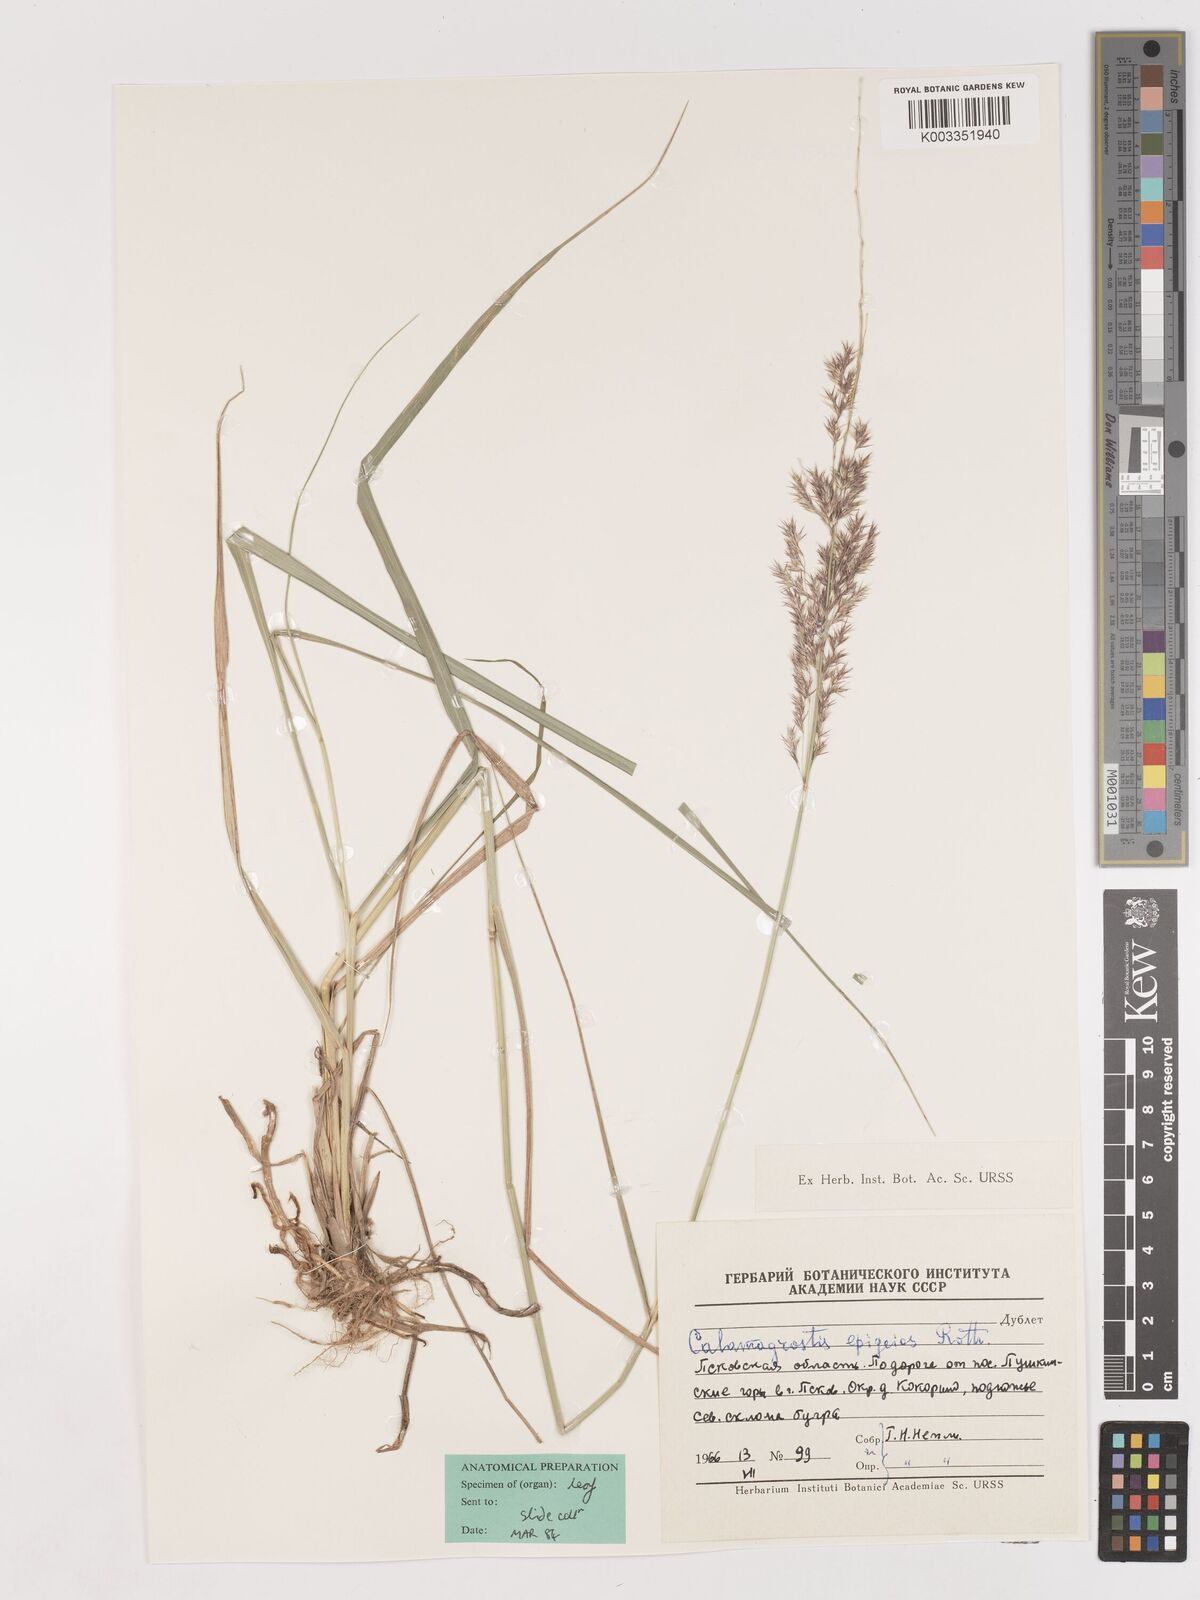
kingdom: Plantae
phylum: Tracheophyta
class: Liliopsida
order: Poales
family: Poaceae
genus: Calamagrostis
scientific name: Calamagrostis epigejos
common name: Wood small-reed
